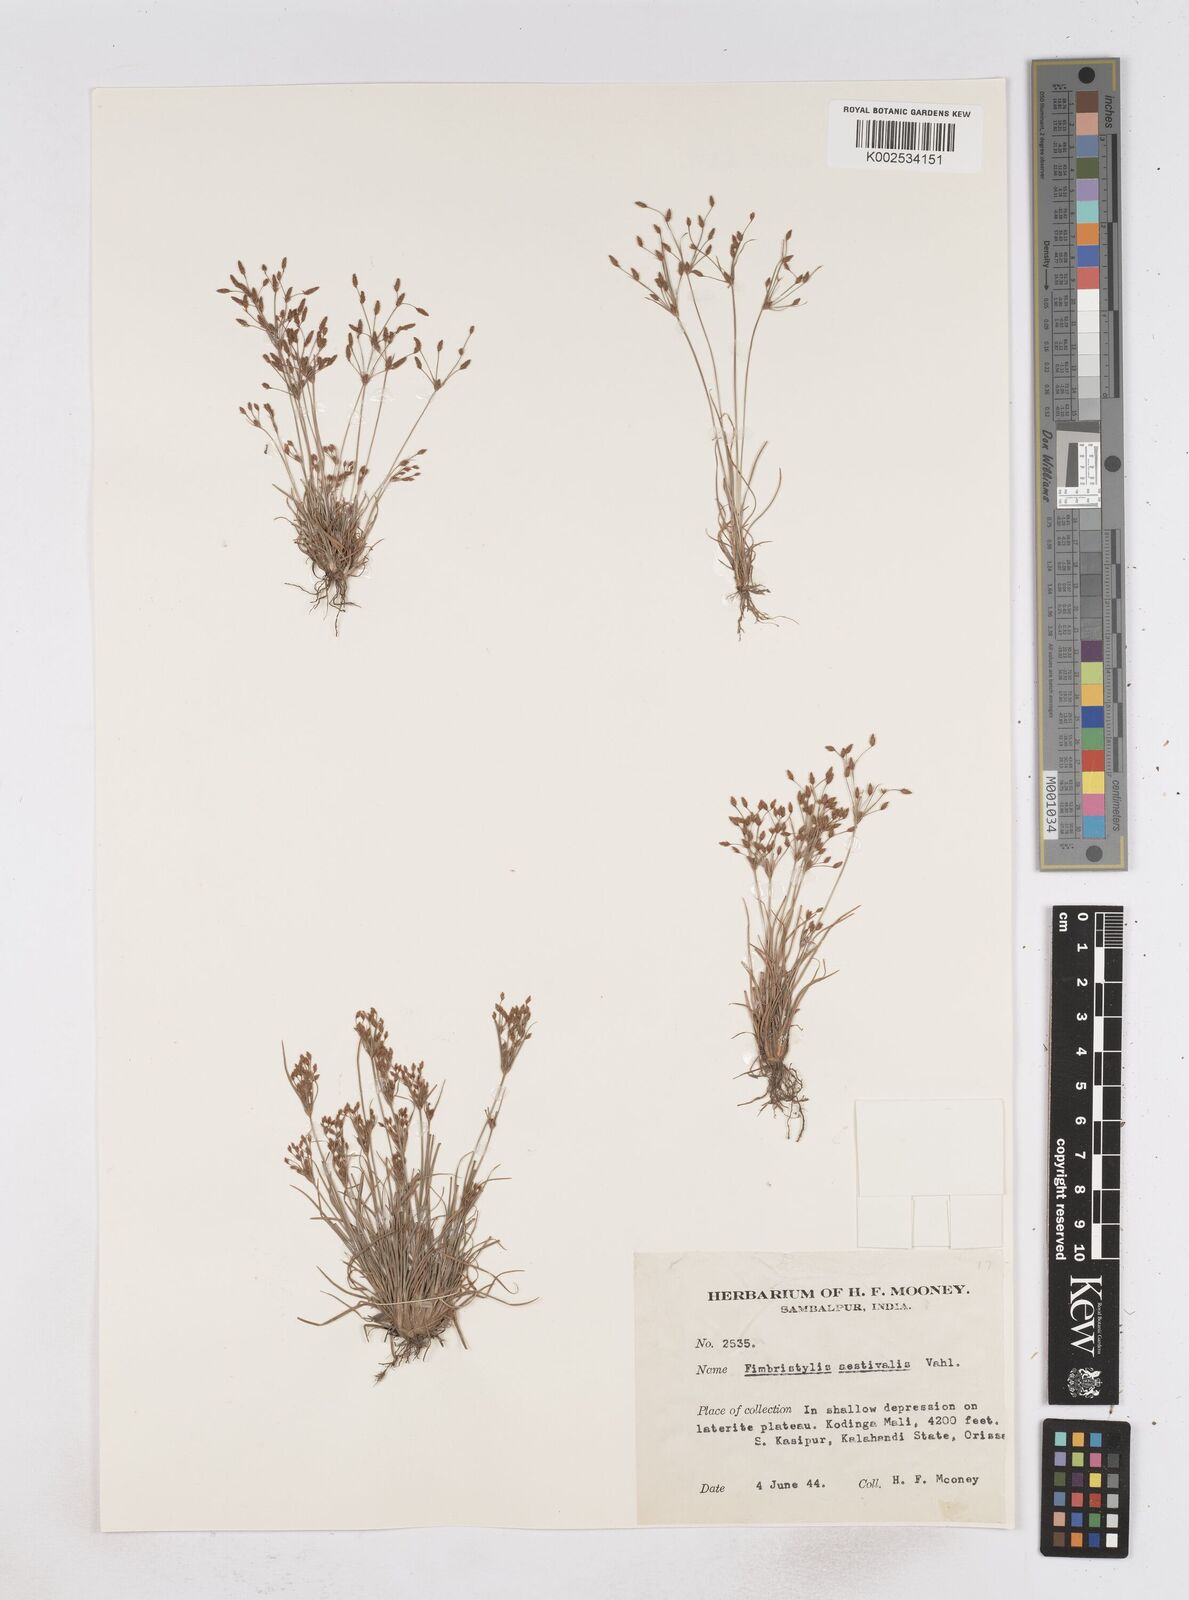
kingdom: Plantae
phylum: Tracheophyta
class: Liliopsida
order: Poales
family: Cyperaceae
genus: Fimbristylis
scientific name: Fimbristylis aestivalis
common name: Summer fimbry
